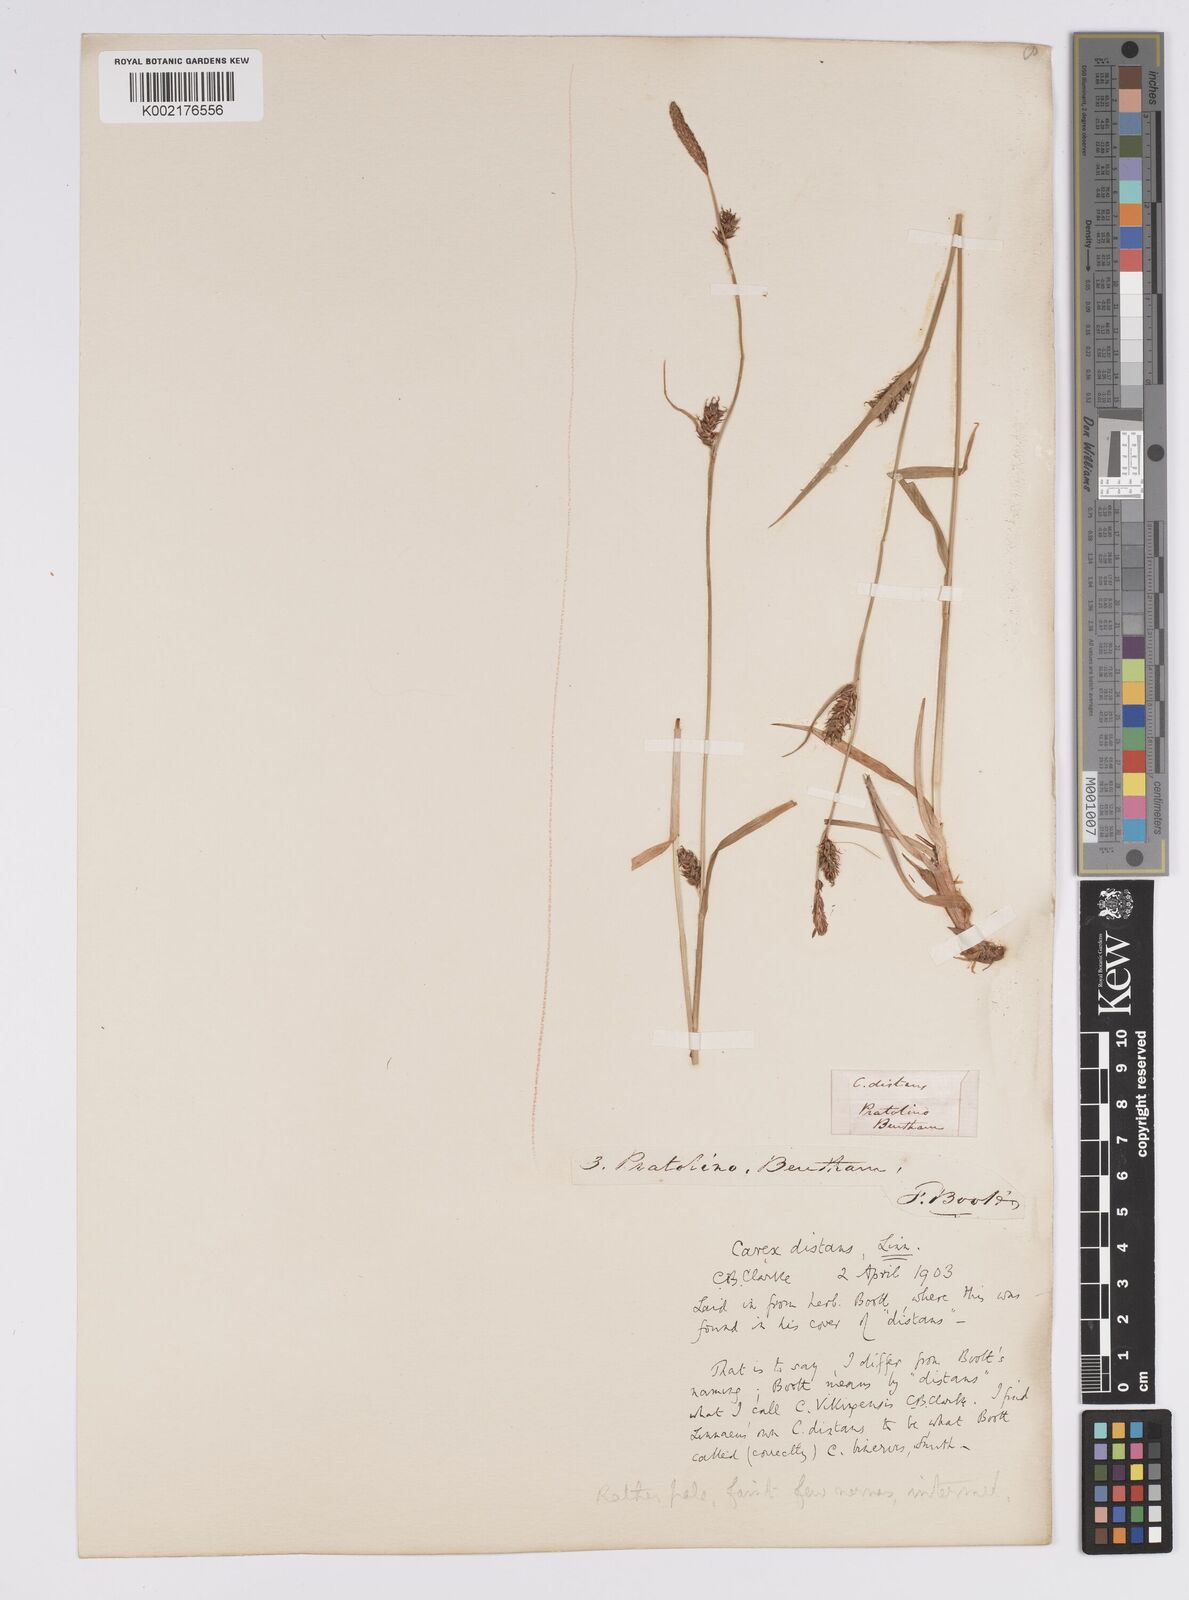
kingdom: Plantae
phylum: Tracheophyta
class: Liliopsida
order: Poales
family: Cyperaceae
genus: Carex
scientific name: Carex distans
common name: Distant sedge
